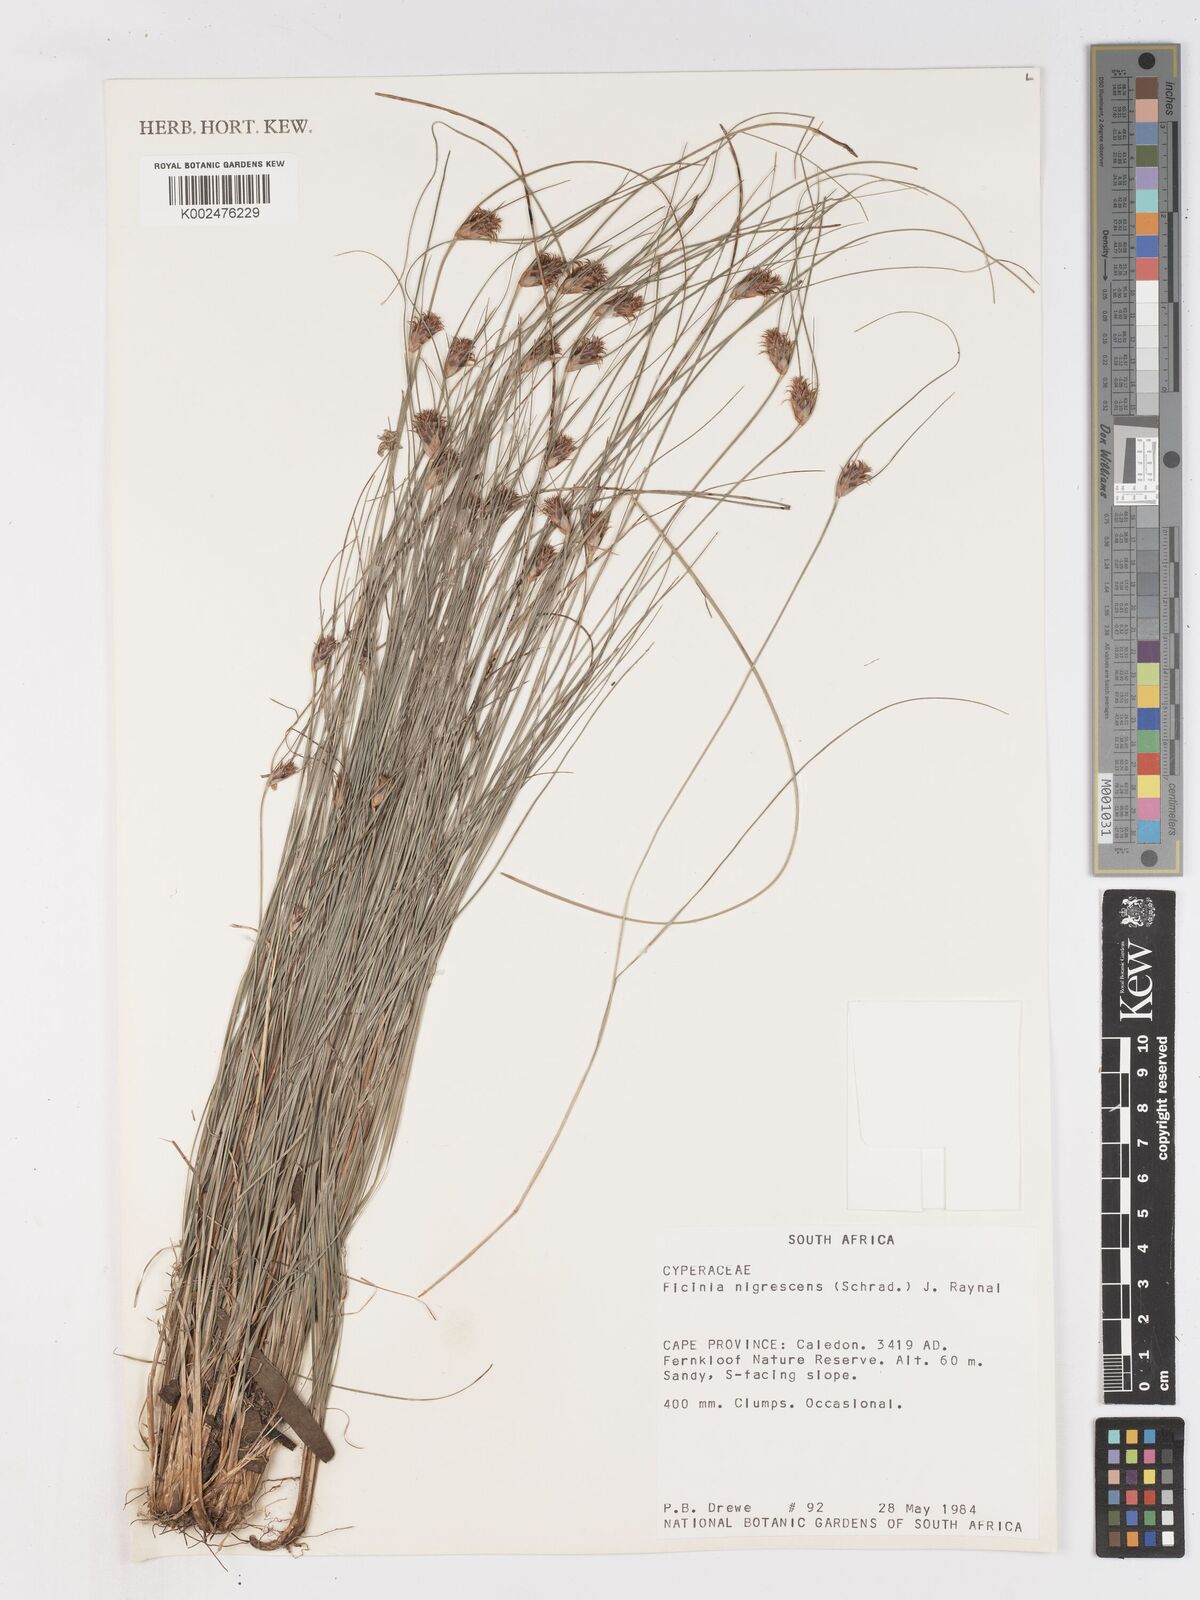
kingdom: Plantae
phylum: Tracheophyta
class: Liliopsida
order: Poales
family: Cyperaceae
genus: Ficinia
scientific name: Ficinia nigrescens
